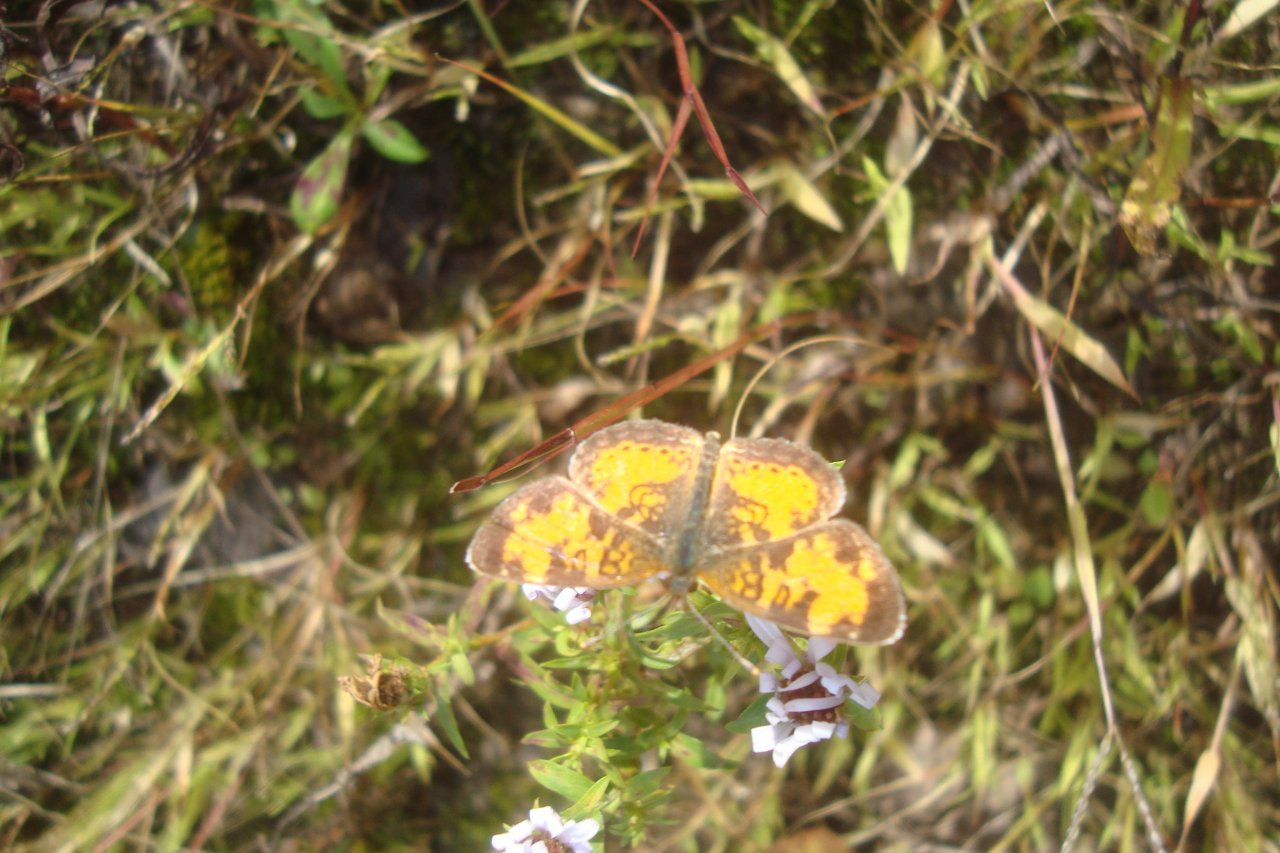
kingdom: Animalia
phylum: Arthropoda
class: Insecta
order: Lepidoptera
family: Nymphalidae
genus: Phyciodes
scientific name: Phyciodes tharos
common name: Northern Crescent
